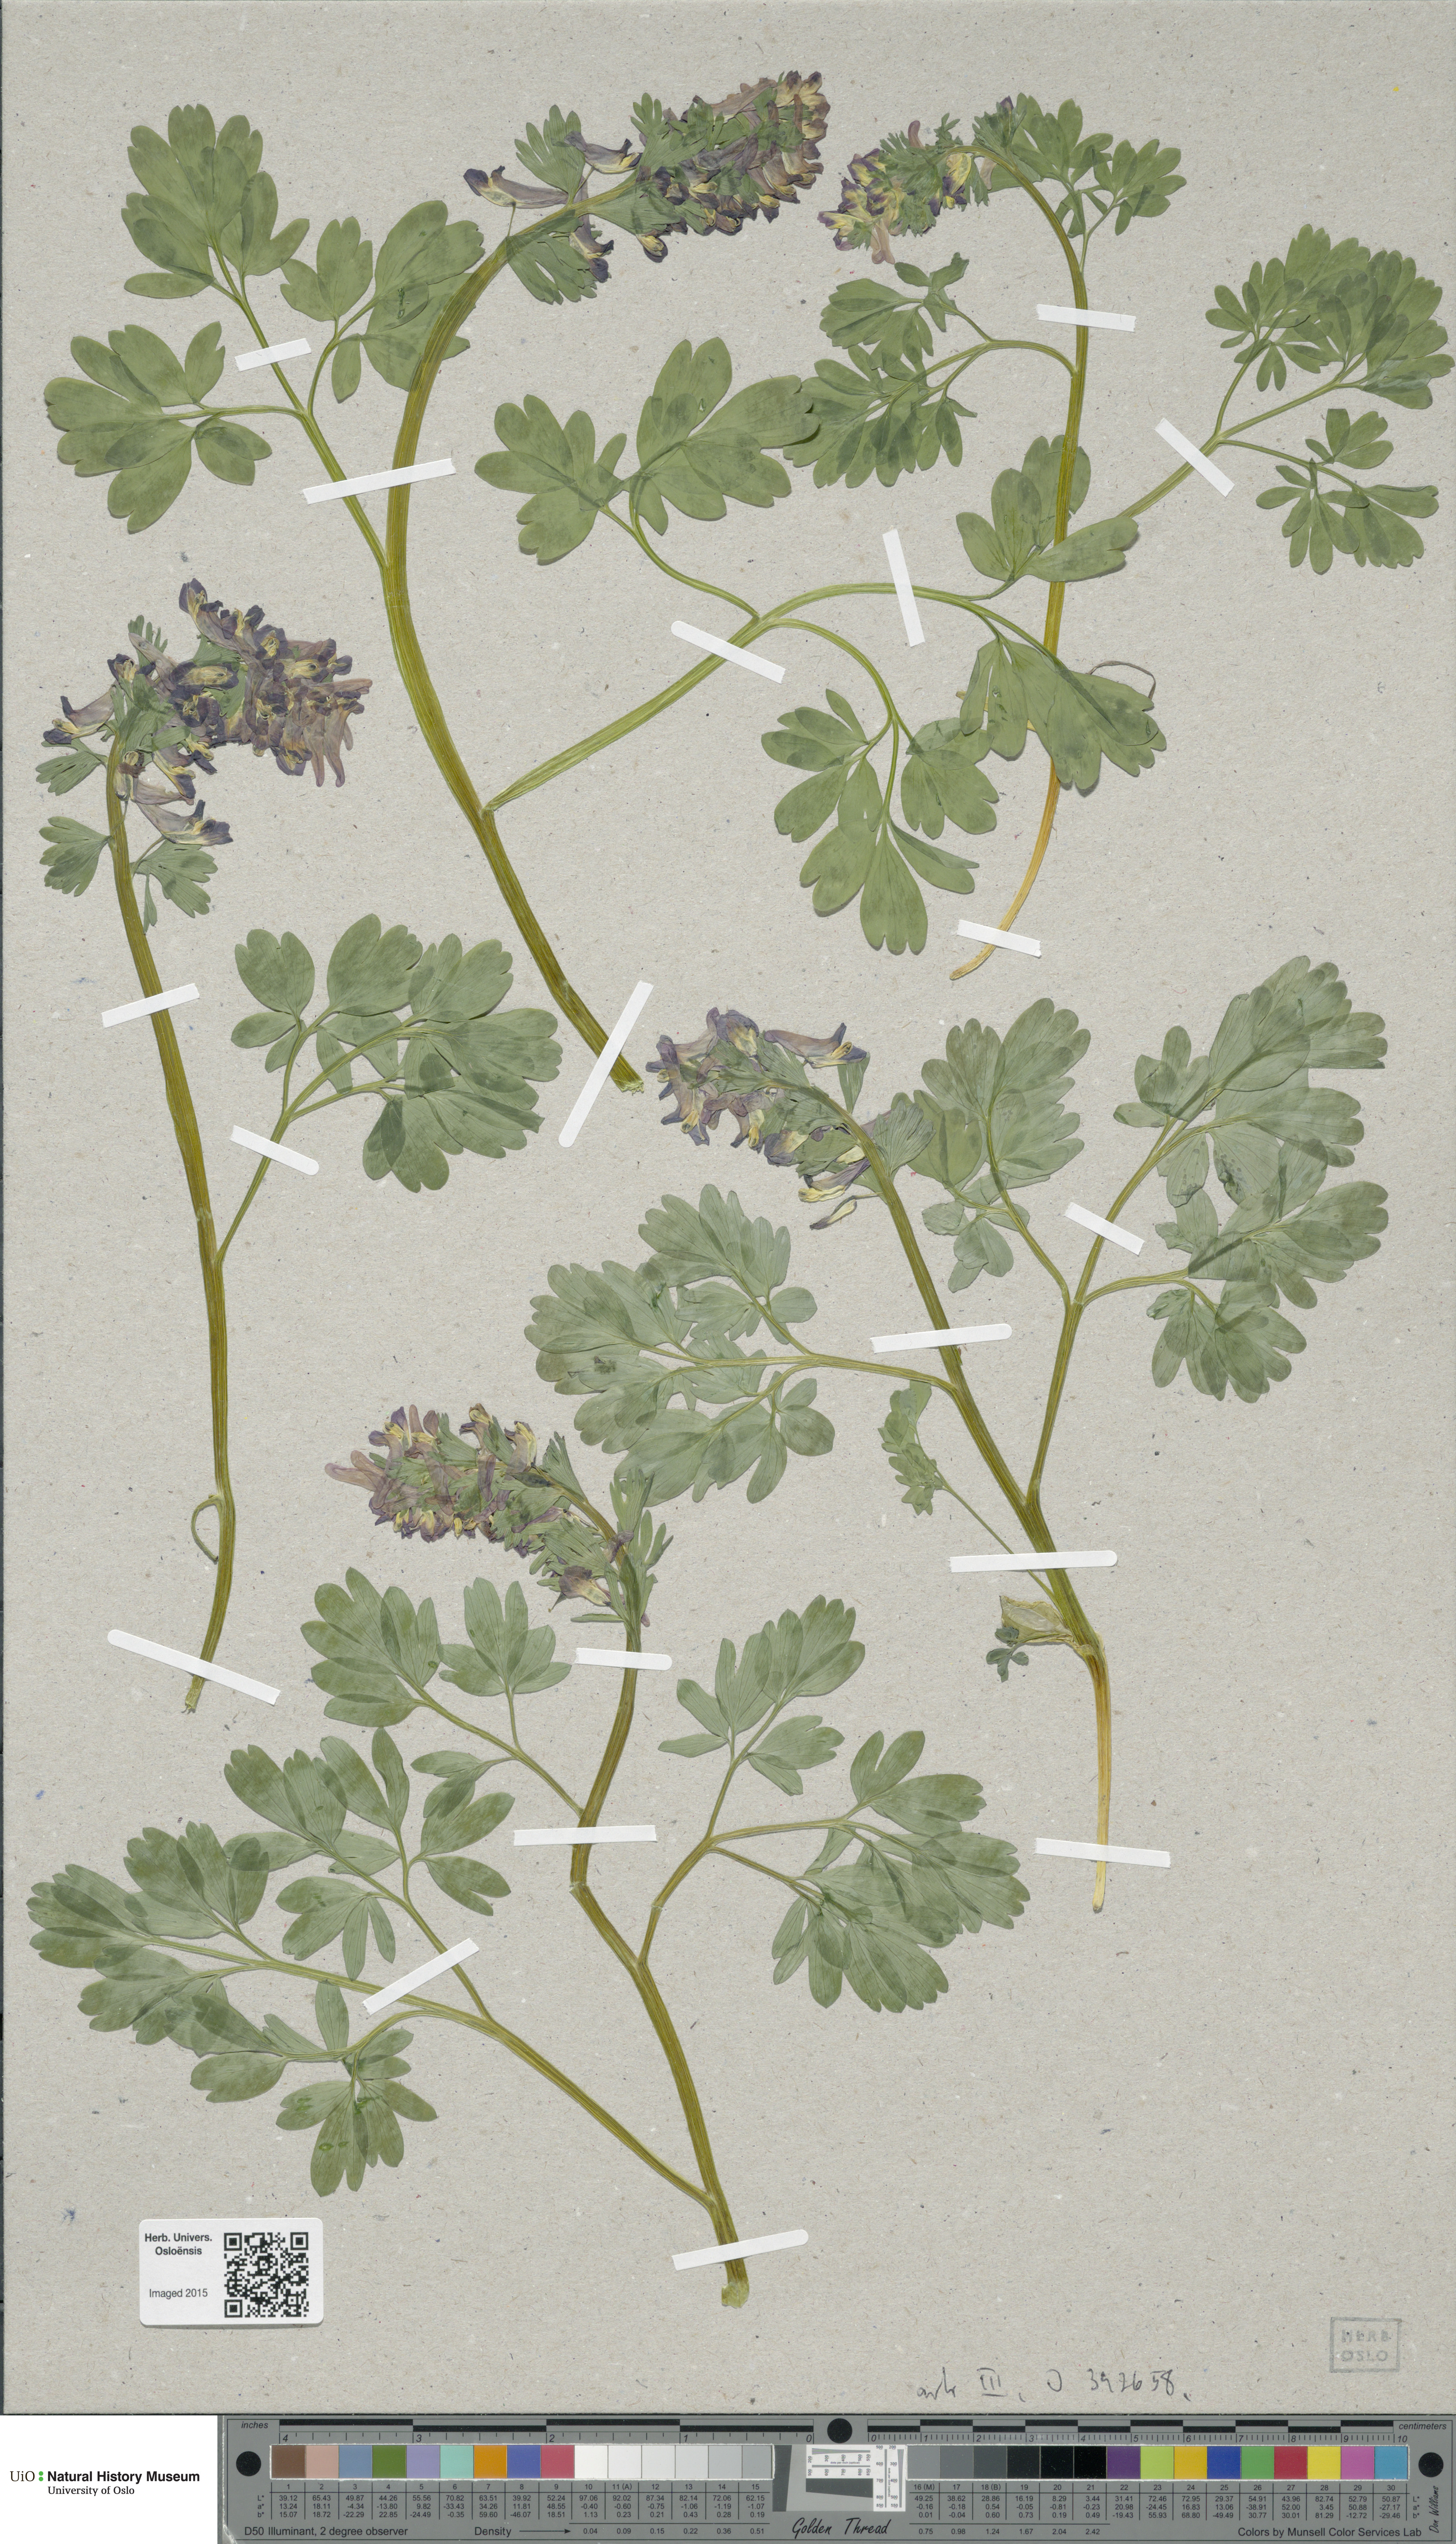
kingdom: Plantae
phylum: Tracheophyta
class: Magnoliopsida
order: Ranunculales
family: Papaveraceae
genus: Corydalis
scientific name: Corydalis
